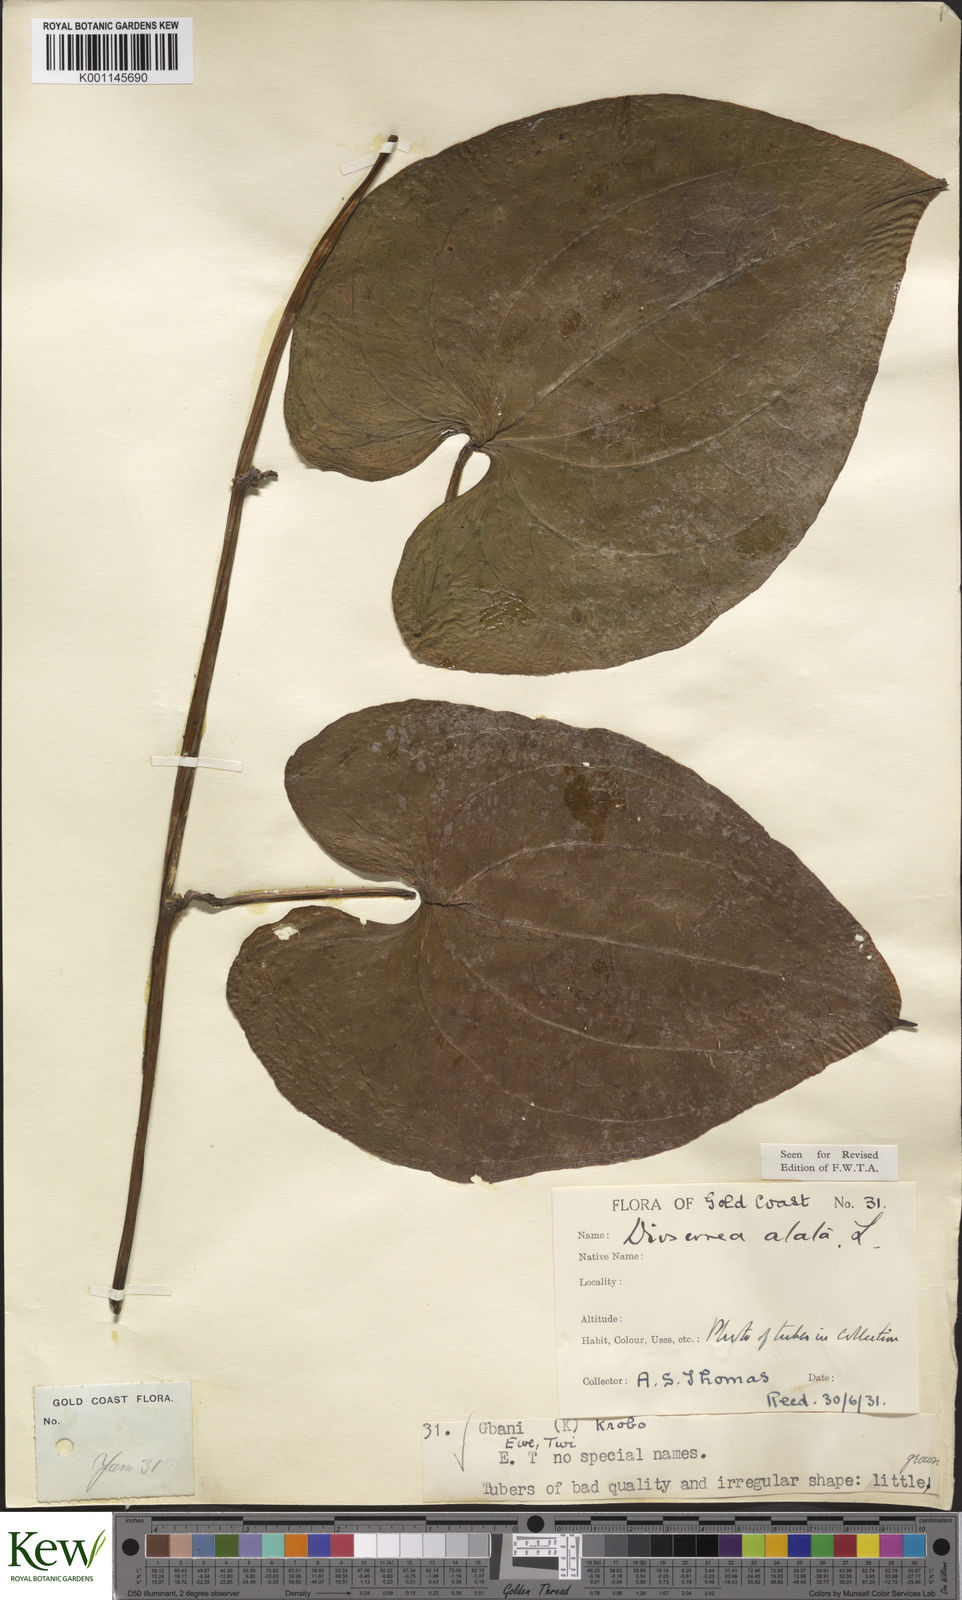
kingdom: Plantae
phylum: Tracheophyta
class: Liliopsida
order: Dioscoreales
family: Dioscoreaceae
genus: Dioscorea
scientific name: Dioscorea alata
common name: Water yam
